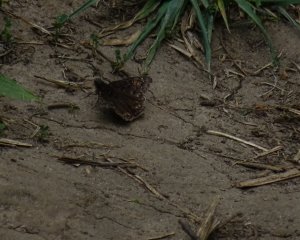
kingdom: Animalia
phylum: Arthropoda
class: Insecta
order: Lepidoptera
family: Hesperiidae
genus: Gesta
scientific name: Gesta
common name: Wild Indigo Duskywing
